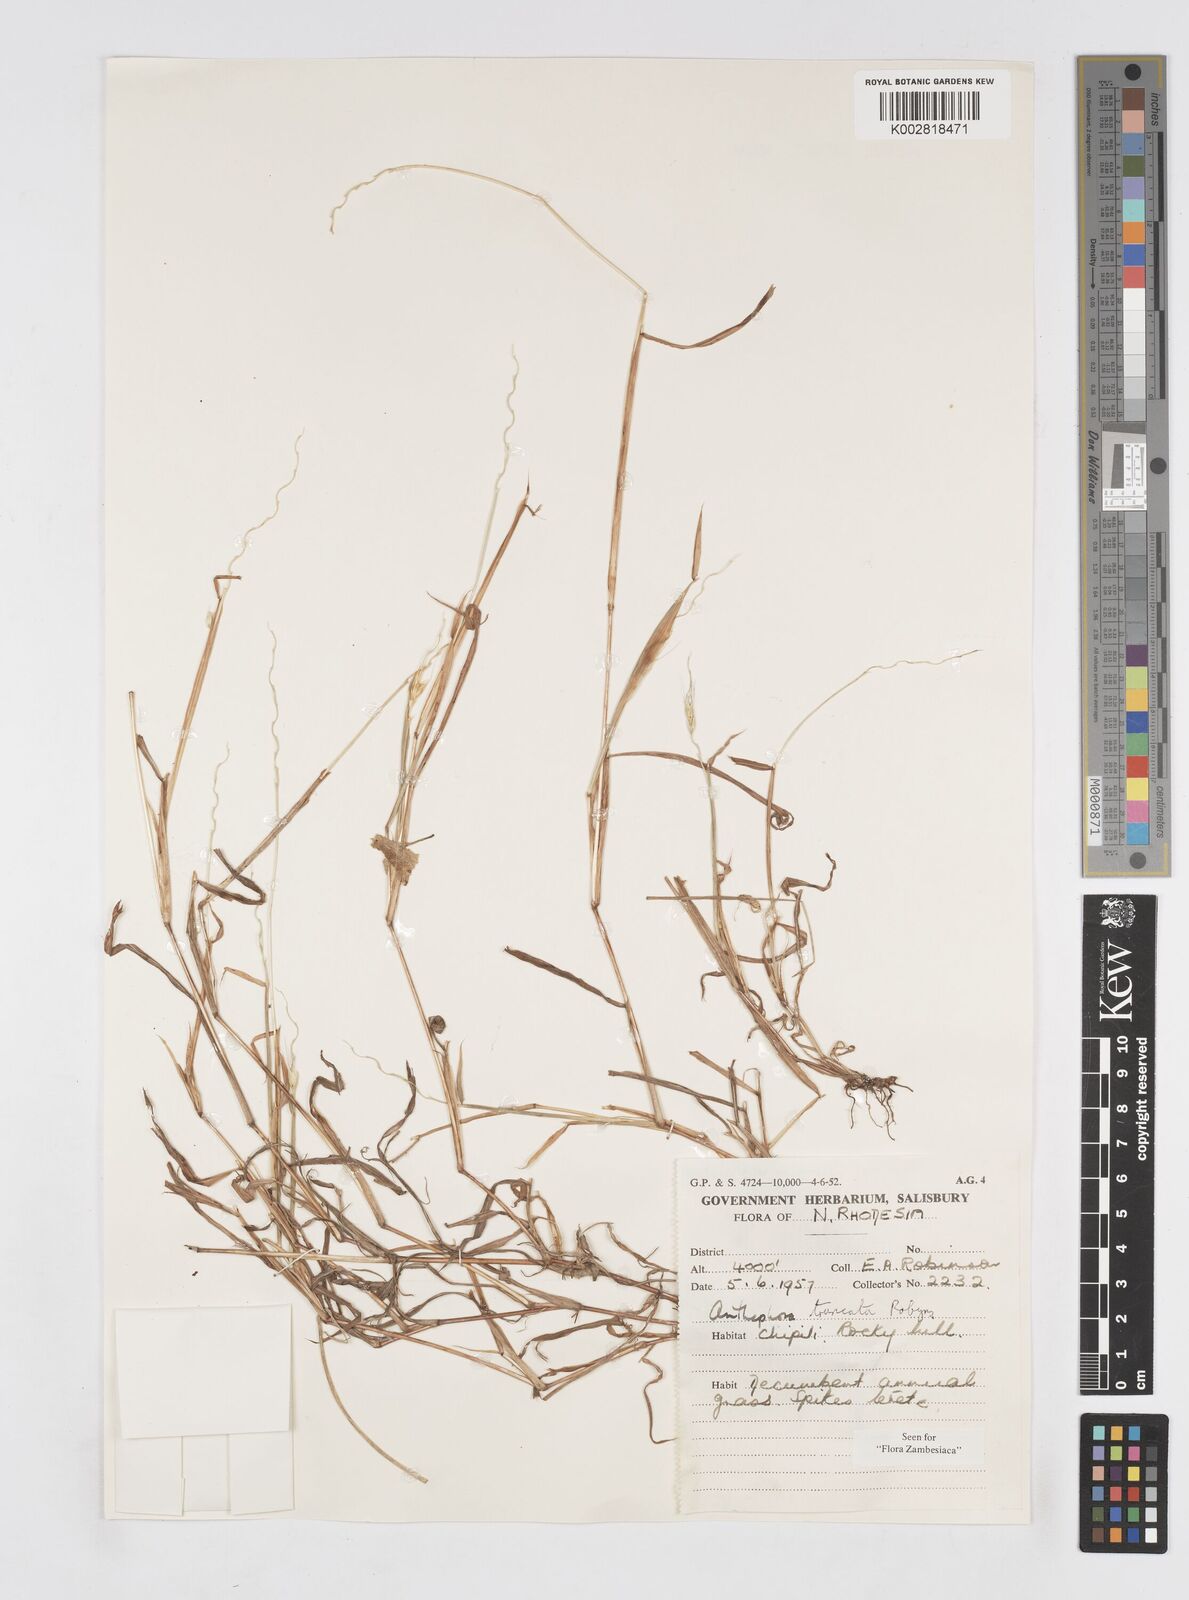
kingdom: Plantae
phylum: Tracheophyta
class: Liliopsida
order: Poales
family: Poaceae
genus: Anthephora
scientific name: Anthephora truncata
